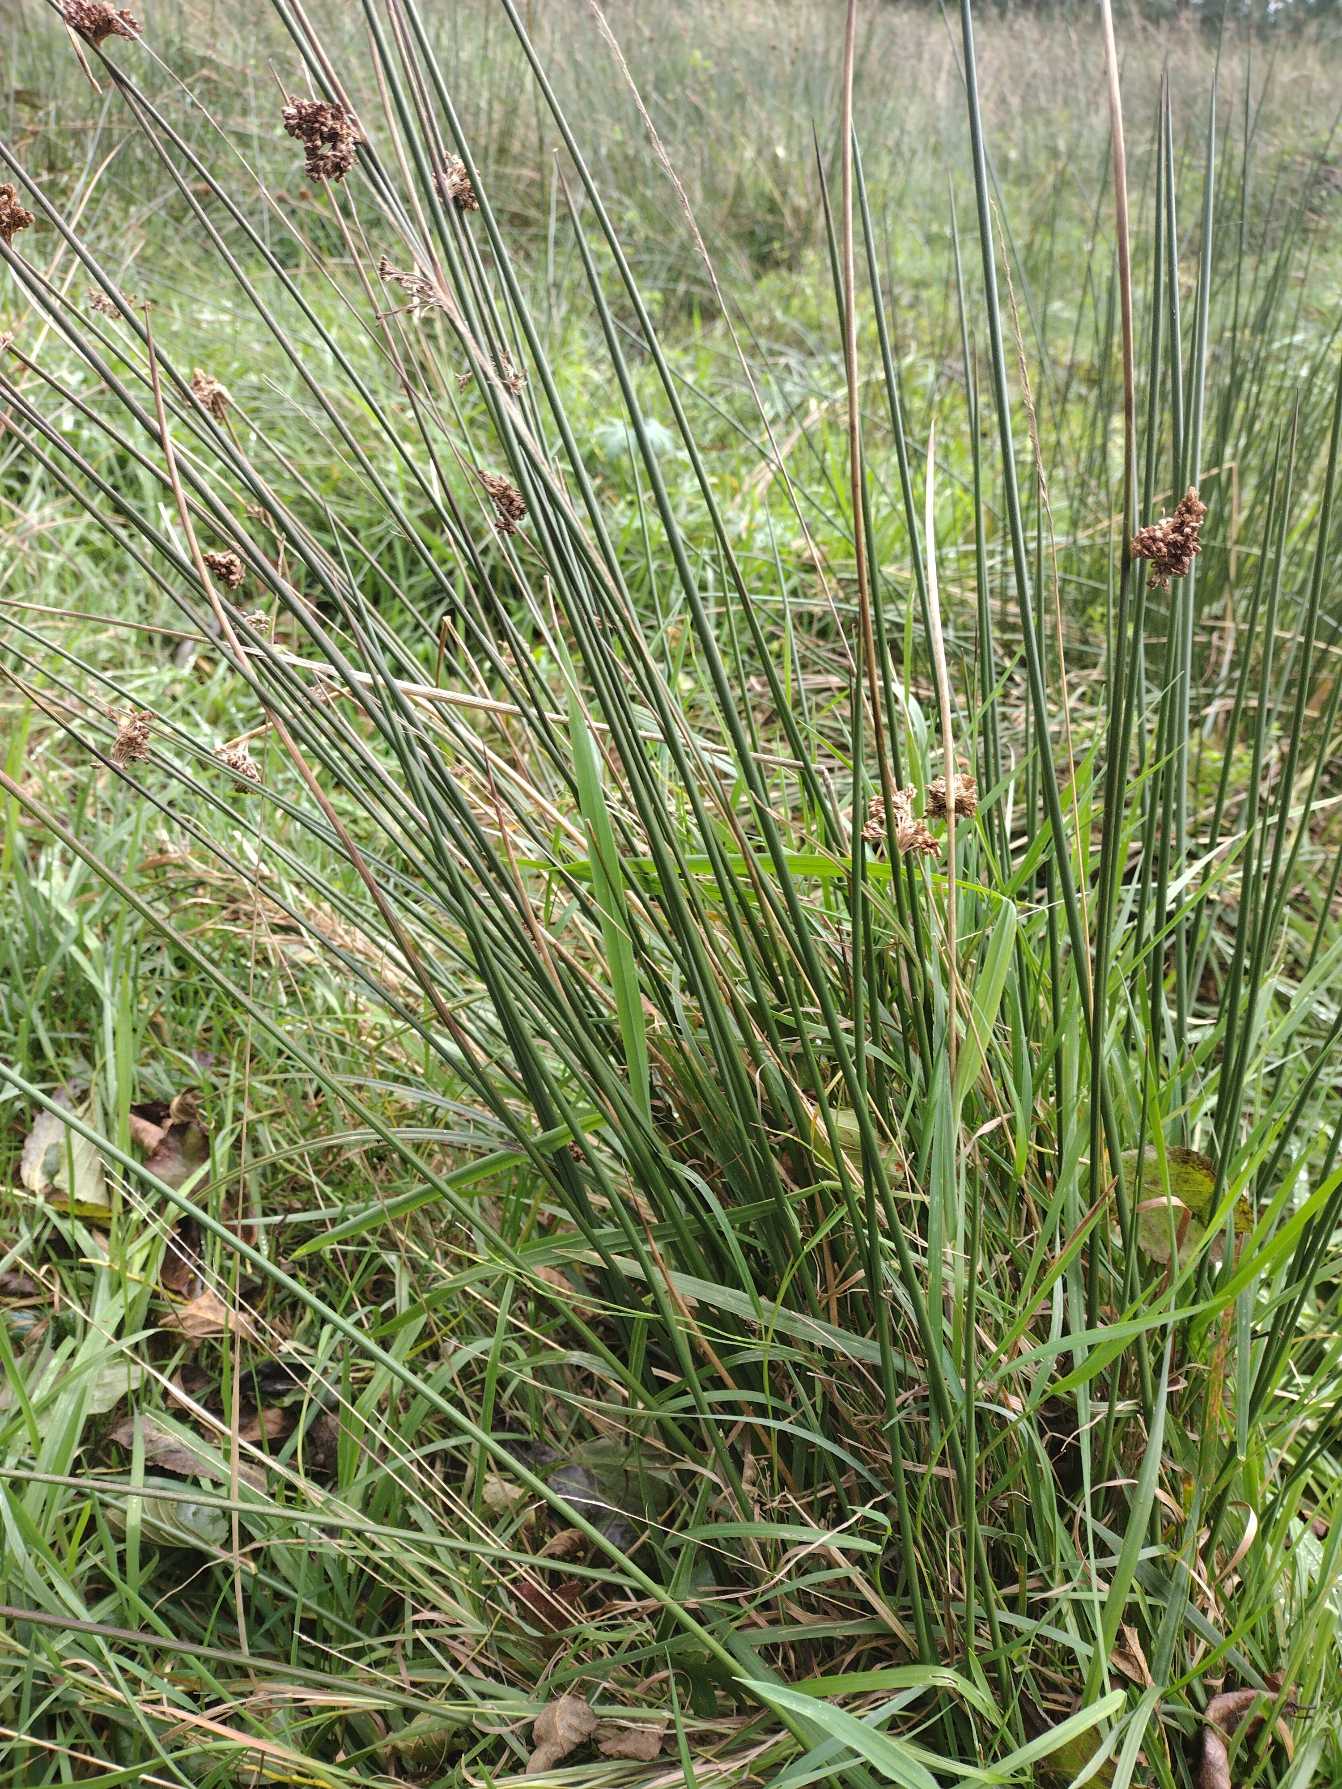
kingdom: Plantae
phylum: Tracheophyta
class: Liliopsida
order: Poales
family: Juncaceae
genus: Juncus
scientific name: Juncus effusus
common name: Lyse-siv
